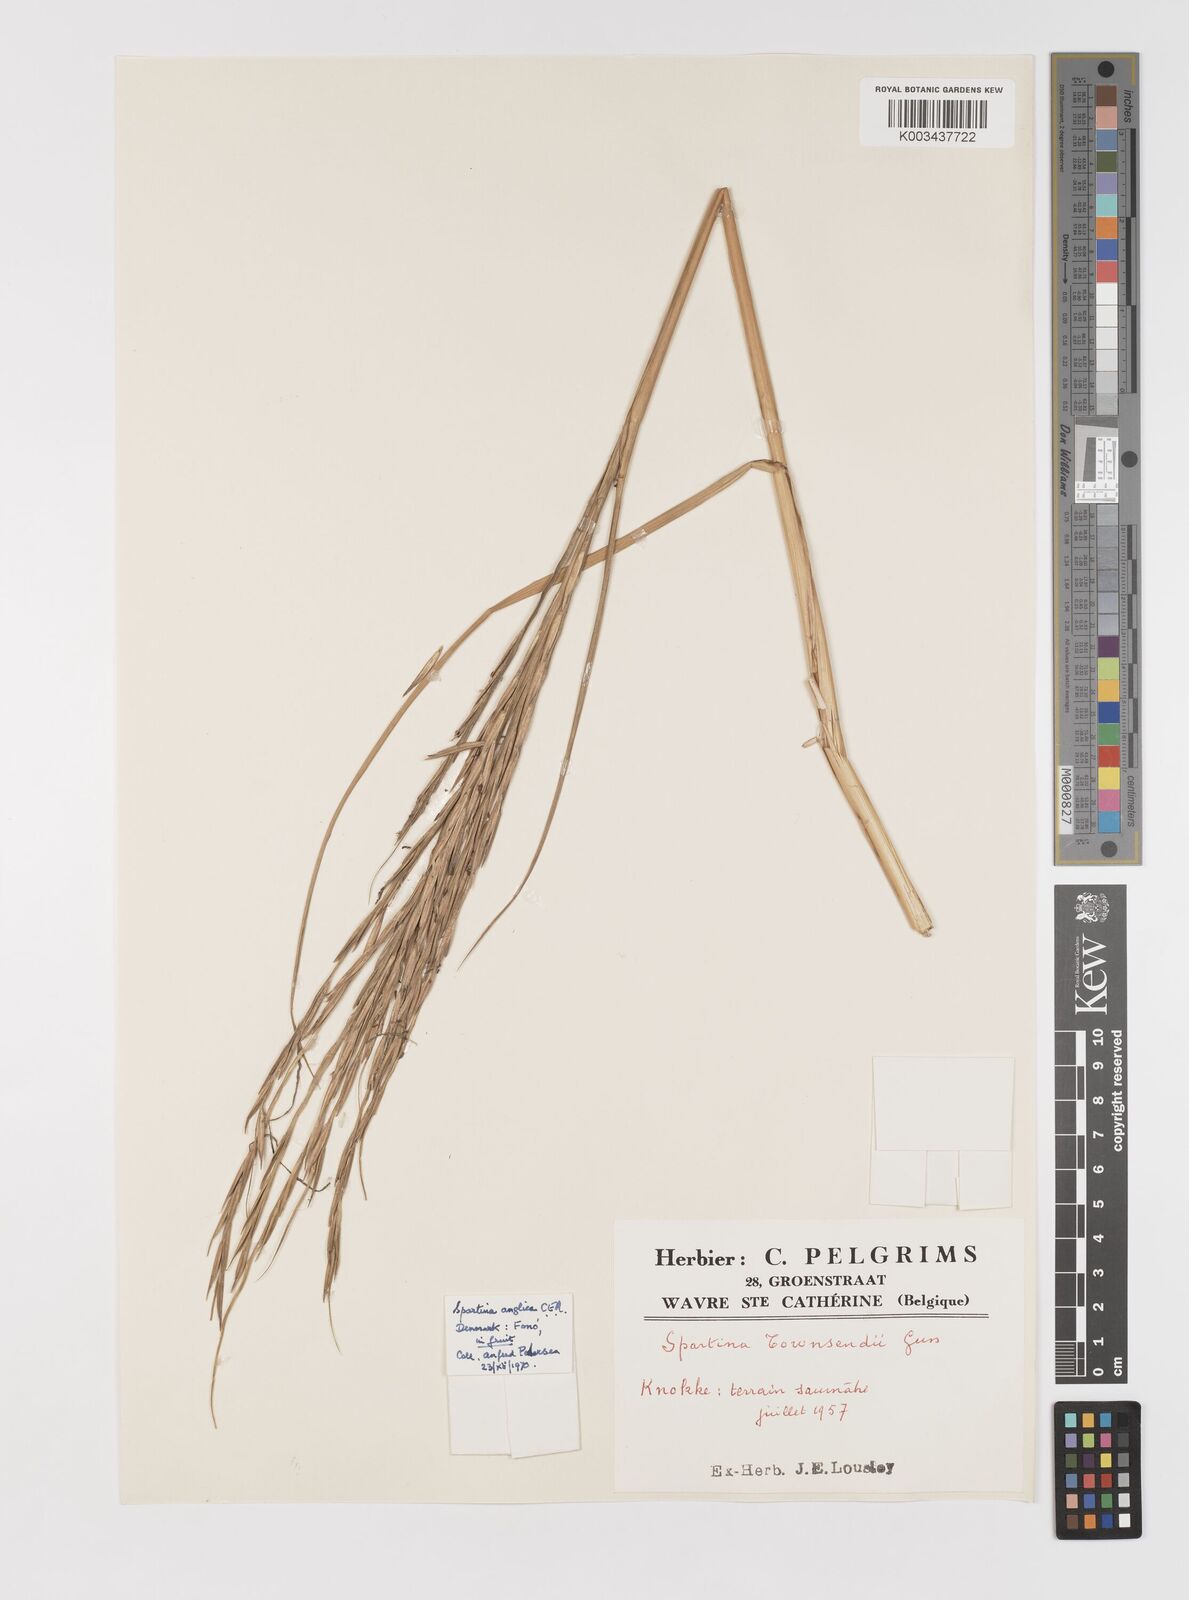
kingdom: Plantae
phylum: Tracheophyta
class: Liliopsida
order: Poales
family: Poaceae
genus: Sporobolus
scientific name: Sporobolus anglicus
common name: English cordgrass
